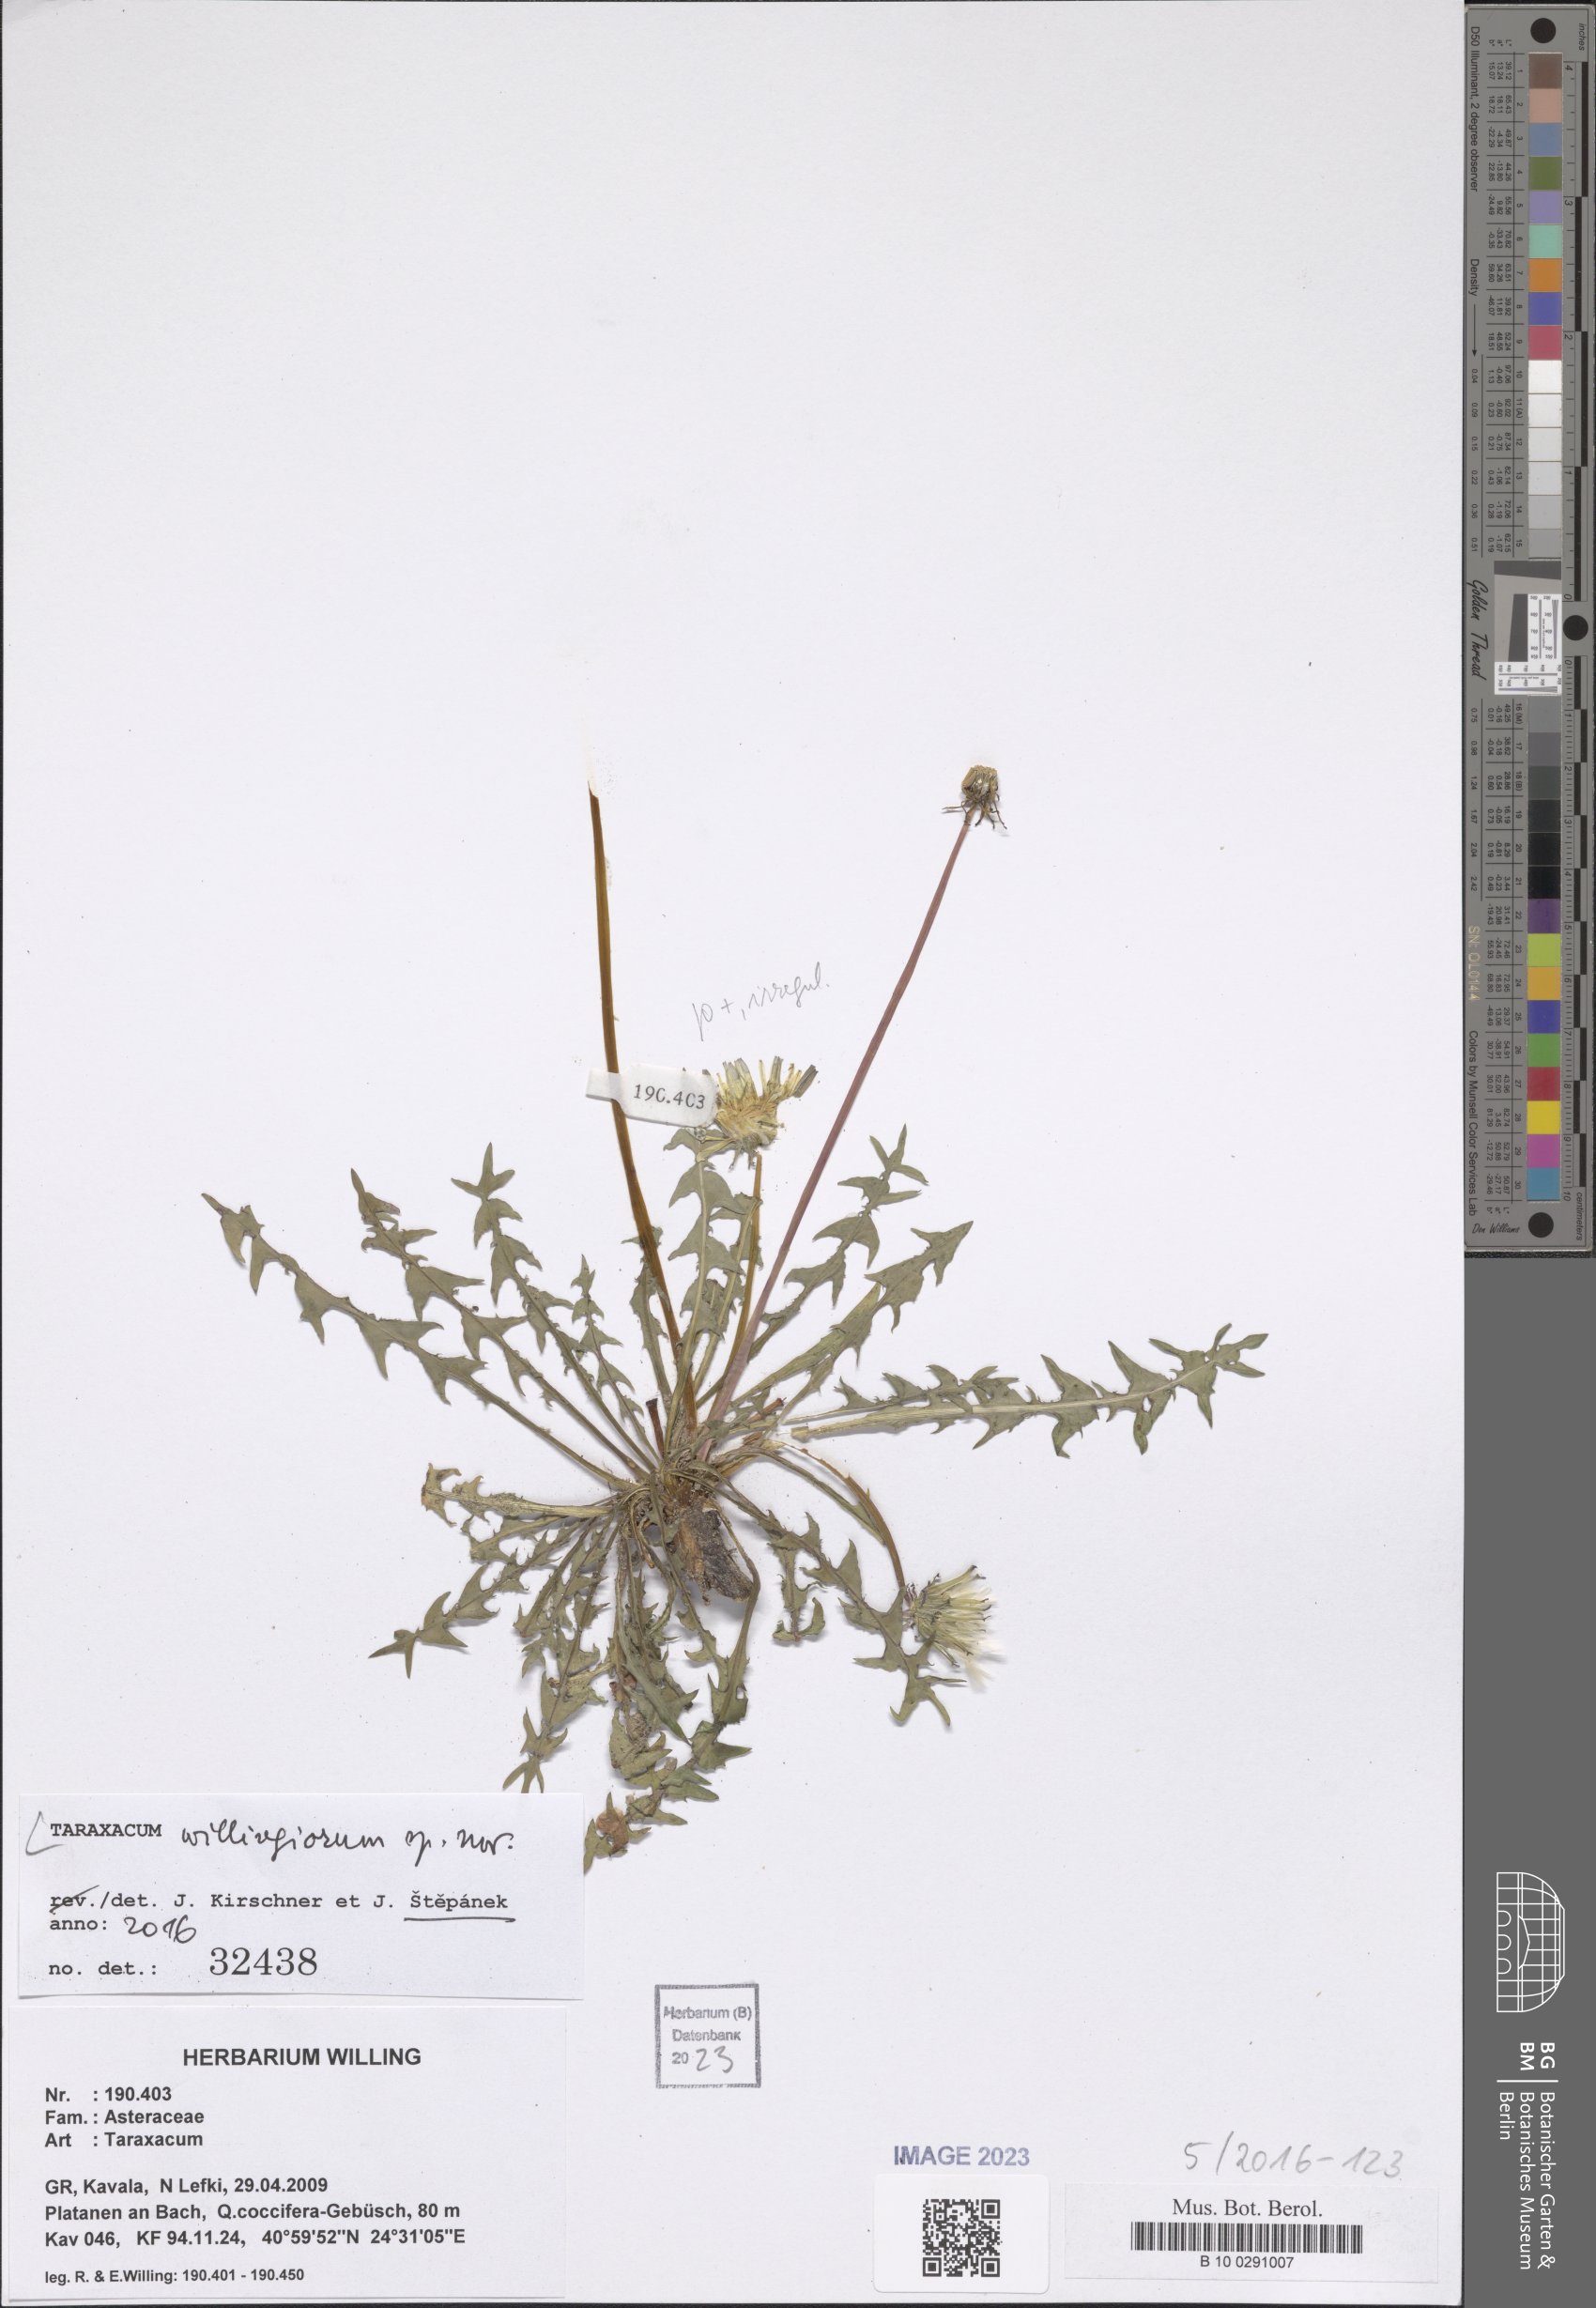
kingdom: Plantae
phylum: Tracheophyta
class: Magnoliopsida
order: Asterales
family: Asteraceae
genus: Taraxacum
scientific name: Taraxacum
